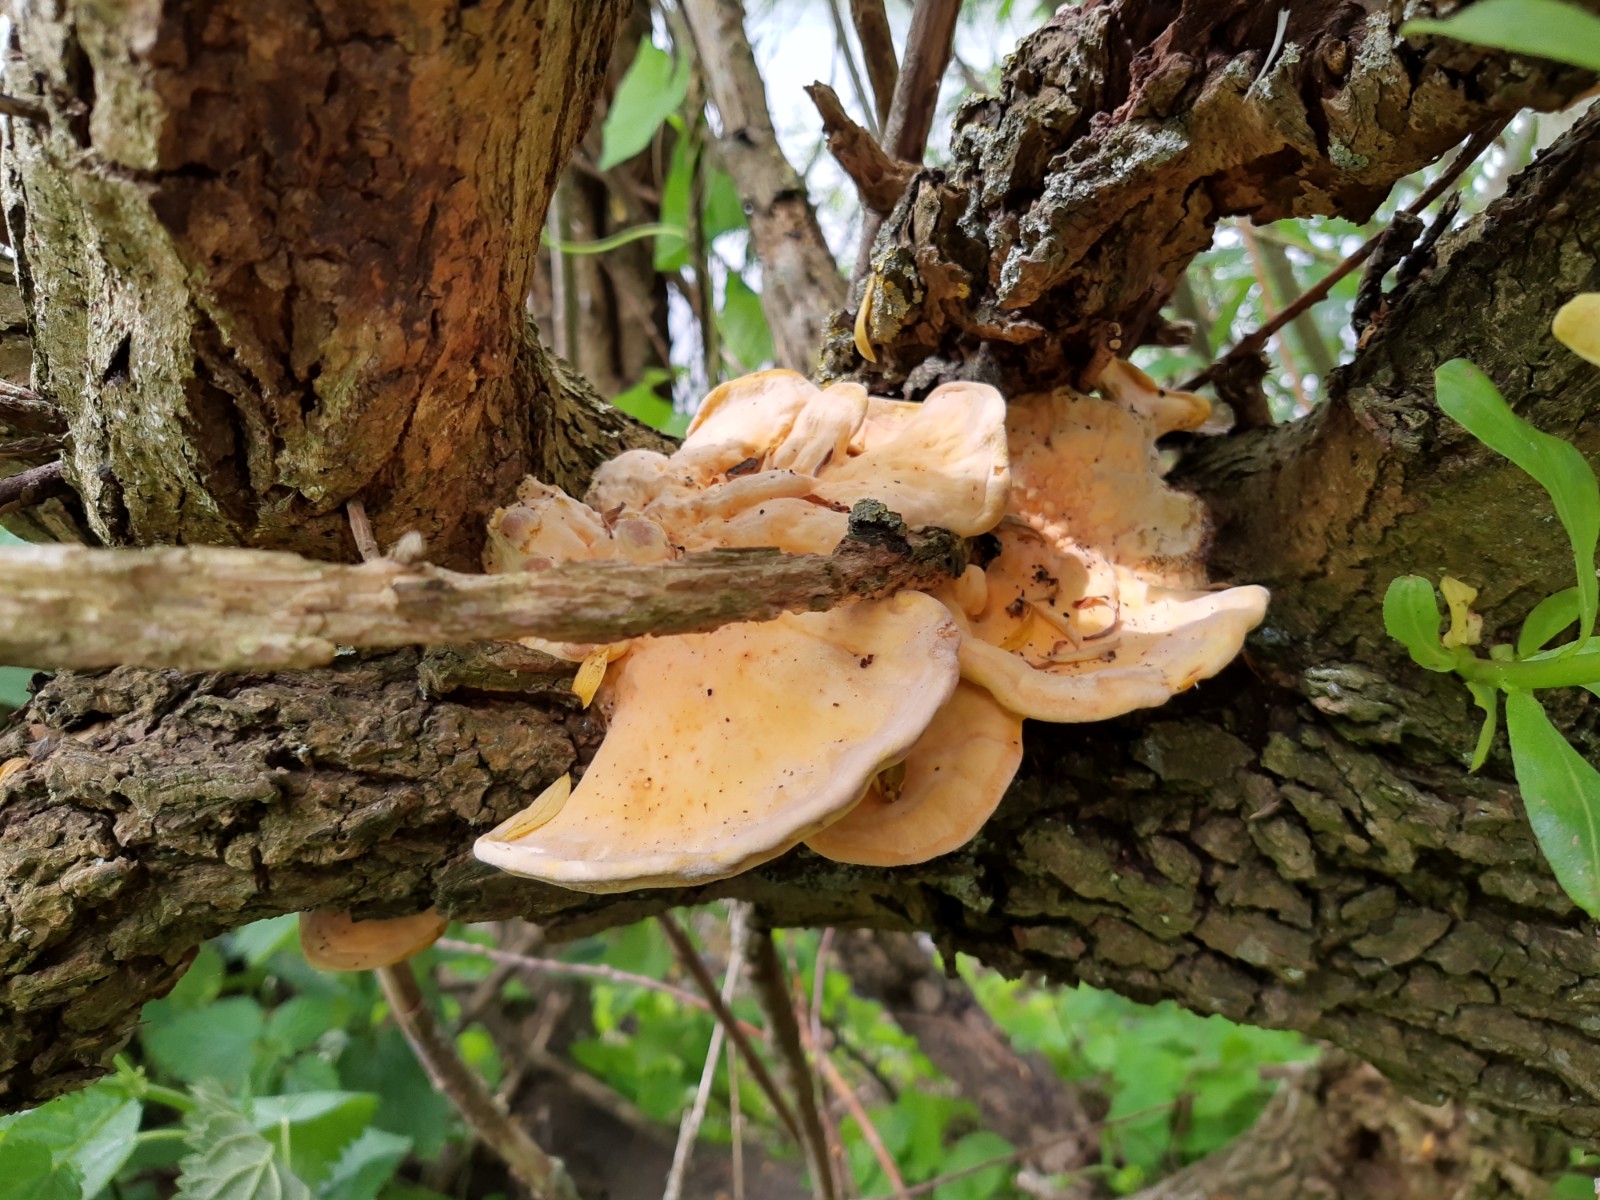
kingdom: Fungi
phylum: Basidiomycota
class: Agaricomycetes
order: Polyporales
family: Laetiporaceae
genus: Laetiporus
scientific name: Laetiporus sulphureus
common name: svovlporesvamp
